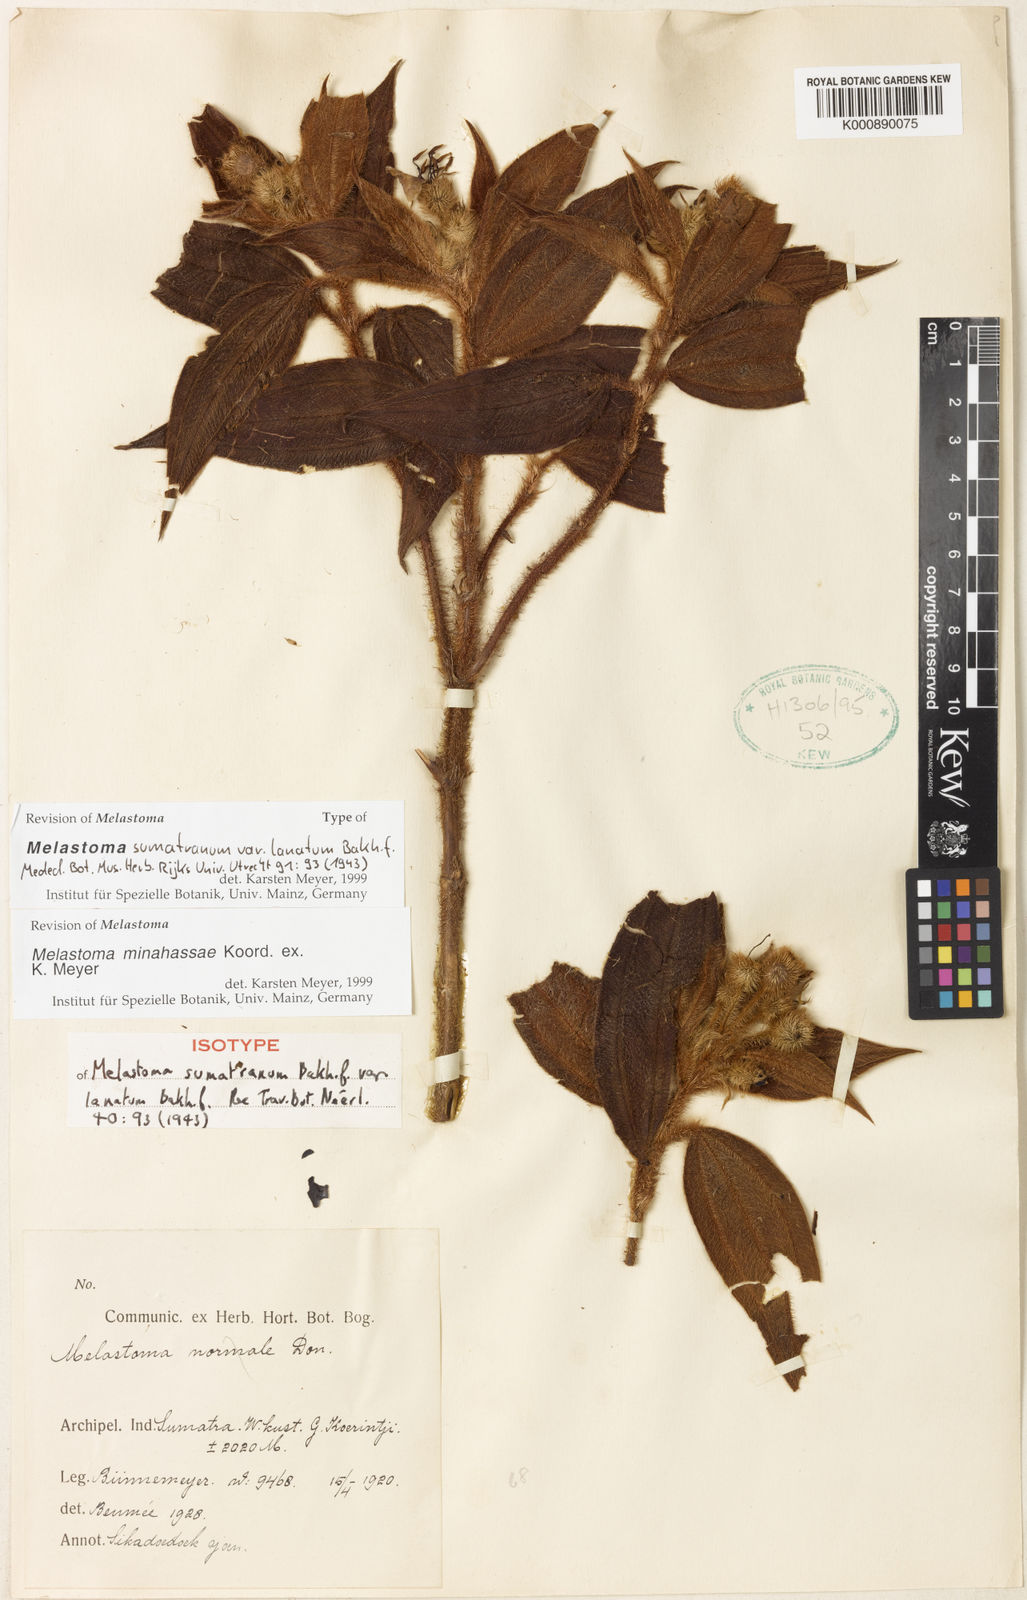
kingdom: Plantae
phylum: Tracheophyta
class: Magnoliopsida
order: Myrtales
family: Melastomataceae
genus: Melastoma
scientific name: Melastoma minahassae
